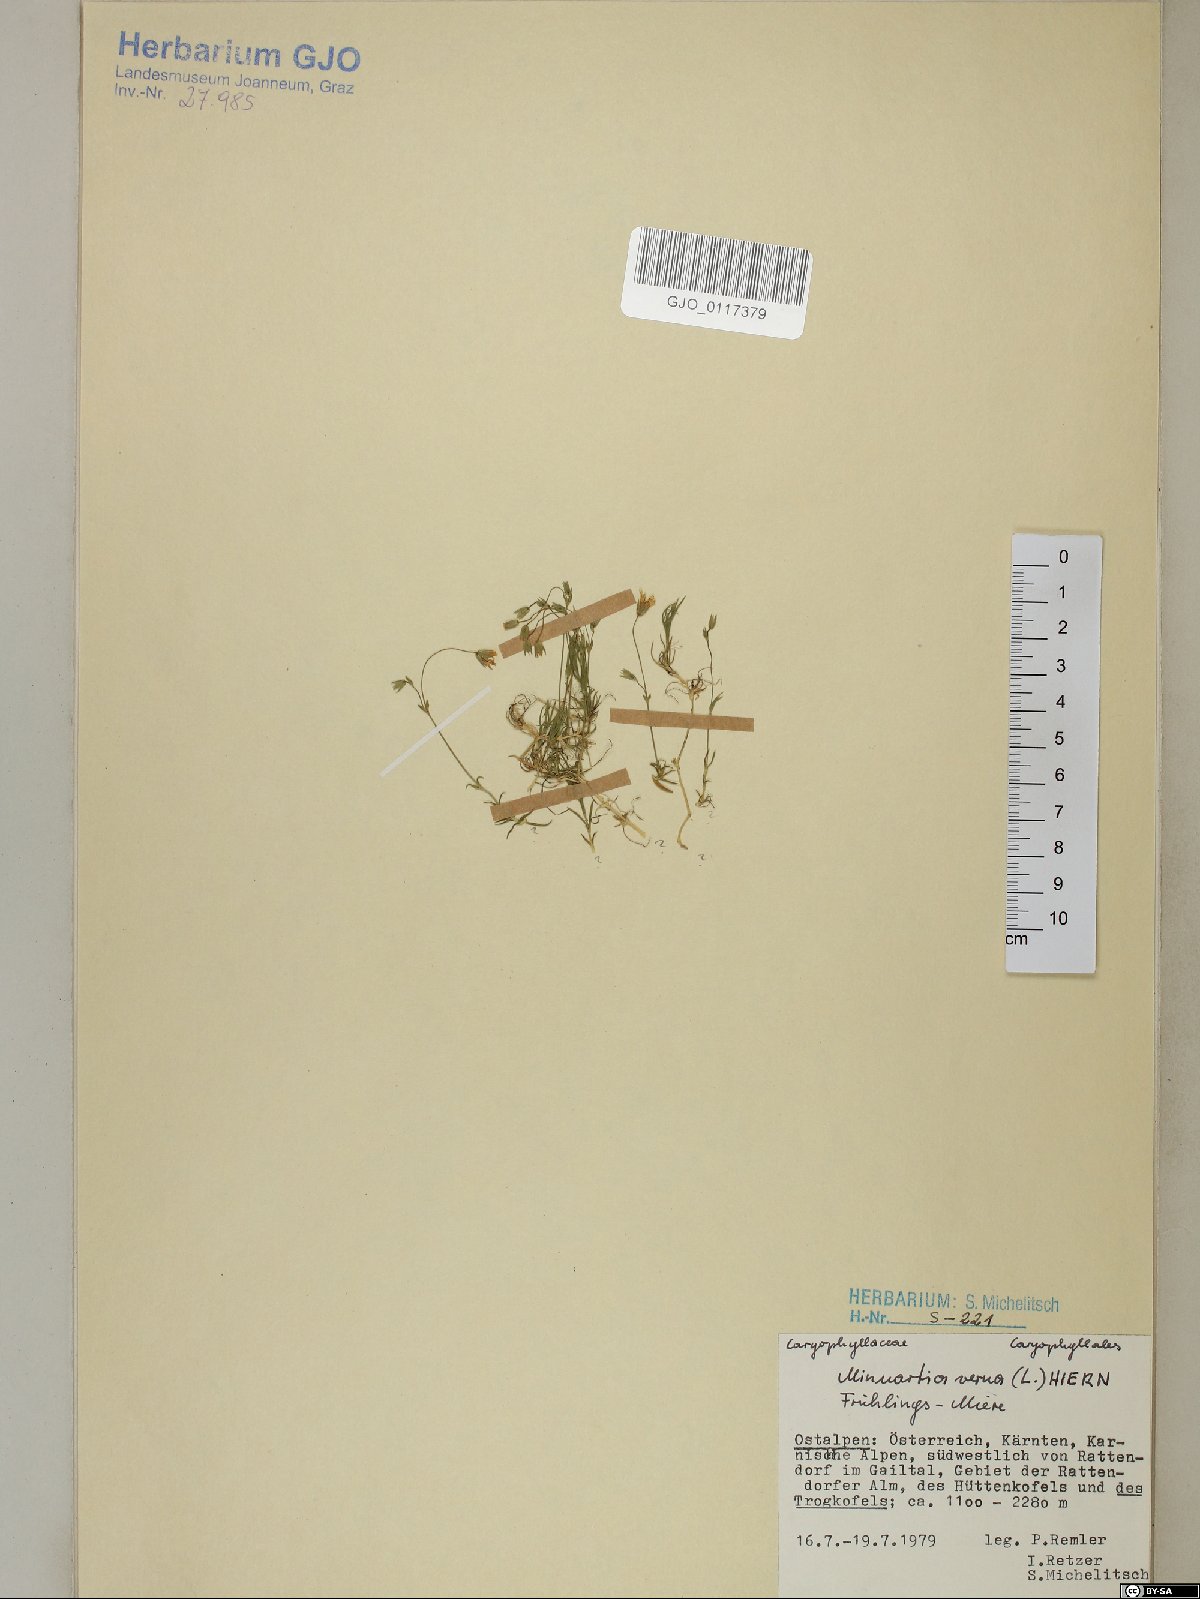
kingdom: Plantae
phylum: Tracheophyta
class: Magnoliopsida
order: Caryophyllales
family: Caryophyllaceae
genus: Sabulina
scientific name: Sabulina verna
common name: Spring sandwort
